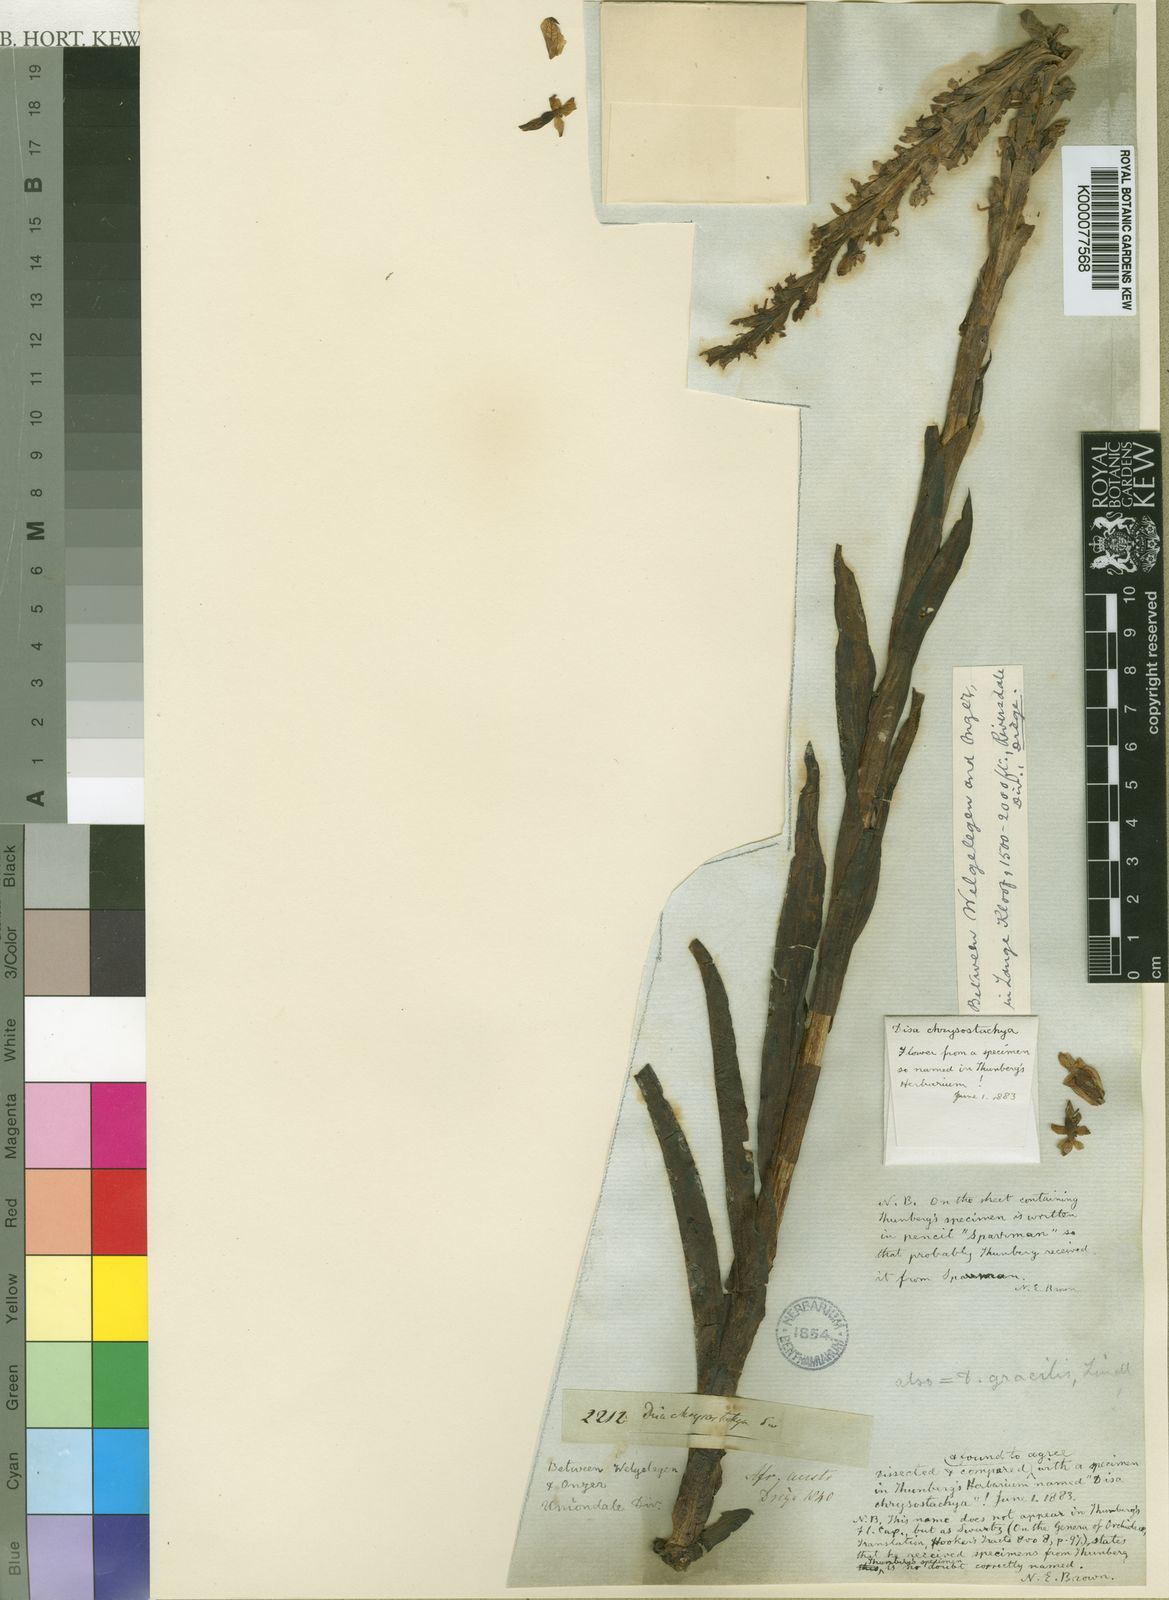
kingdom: Plantae
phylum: Tracheophyta
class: Liliopsida
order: Asparagales
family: Orchidaceae
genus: Disa
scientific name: Disa chrysostachya
